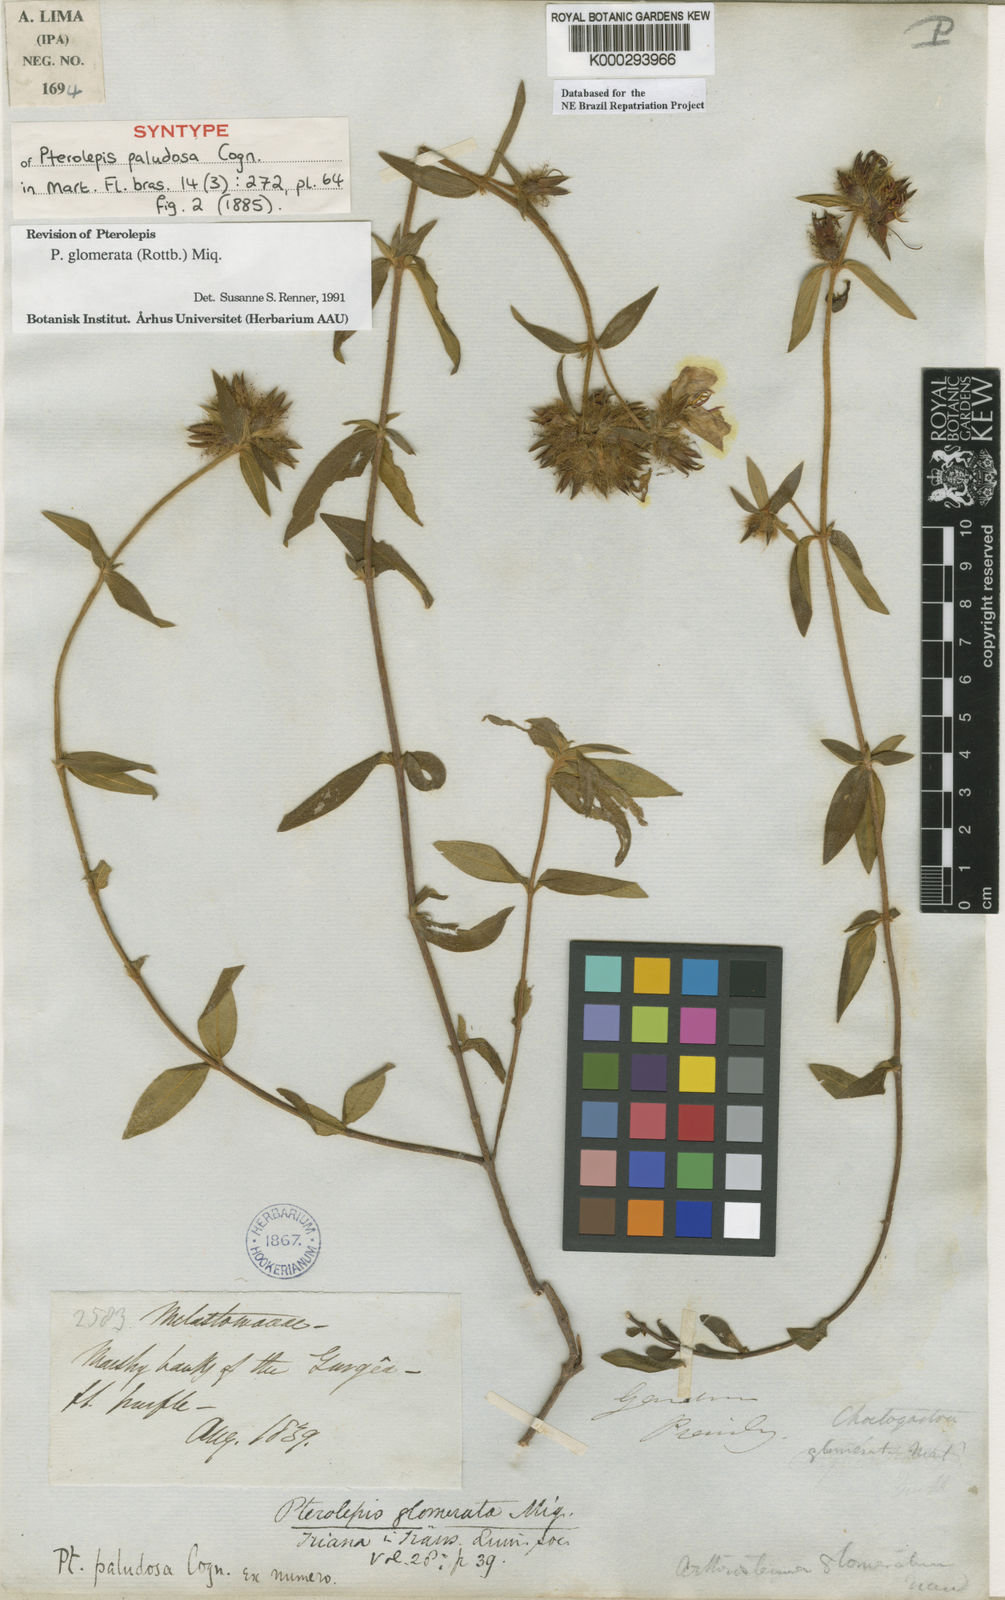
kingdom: Plantae
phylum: Tracheophyta
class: Magnoliopsida
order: Myrtales
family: Melastomataceae
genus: Pterolepis
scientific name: Pterolepis glomerata
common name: False meadowbeauty
